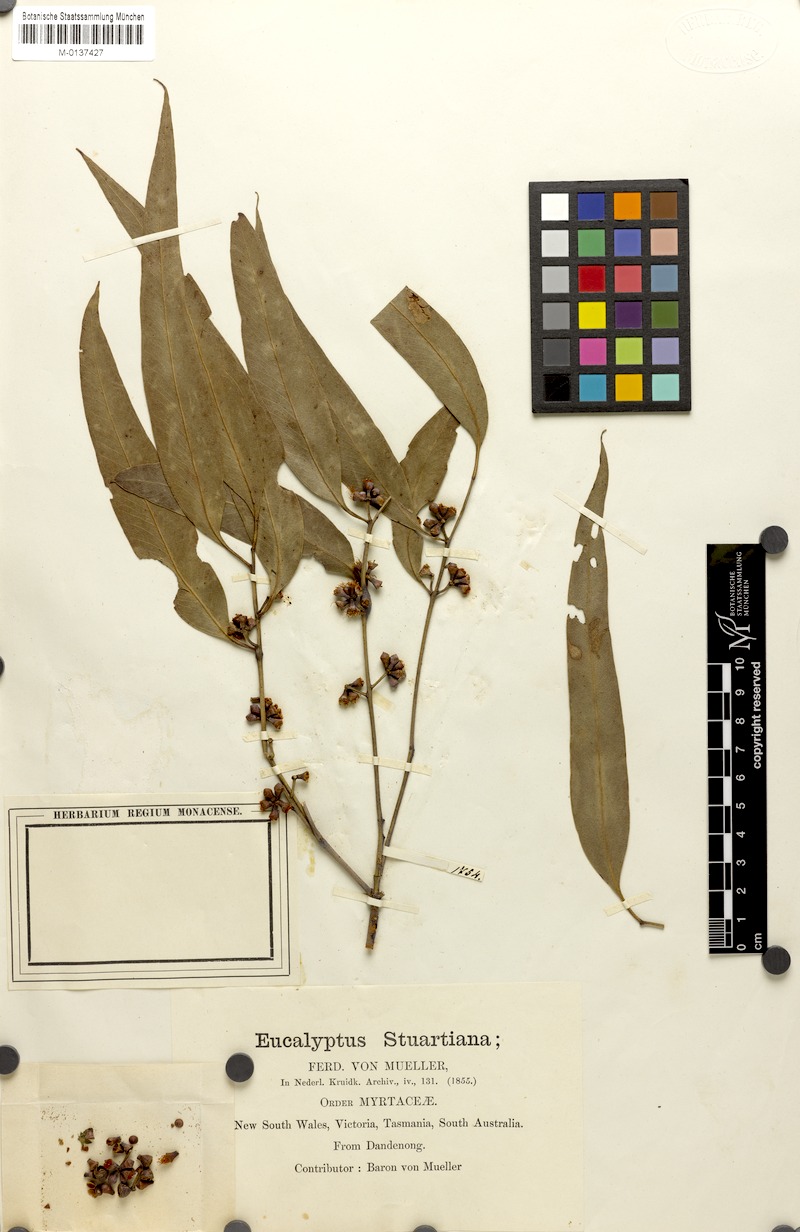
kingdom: Plantae
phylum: Tracheophyta
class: Magnoliopsida
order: Myrtales
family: Myrtaceae
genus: Eucalyptus
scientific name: Eucalyptus ovata
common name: Black-gum
